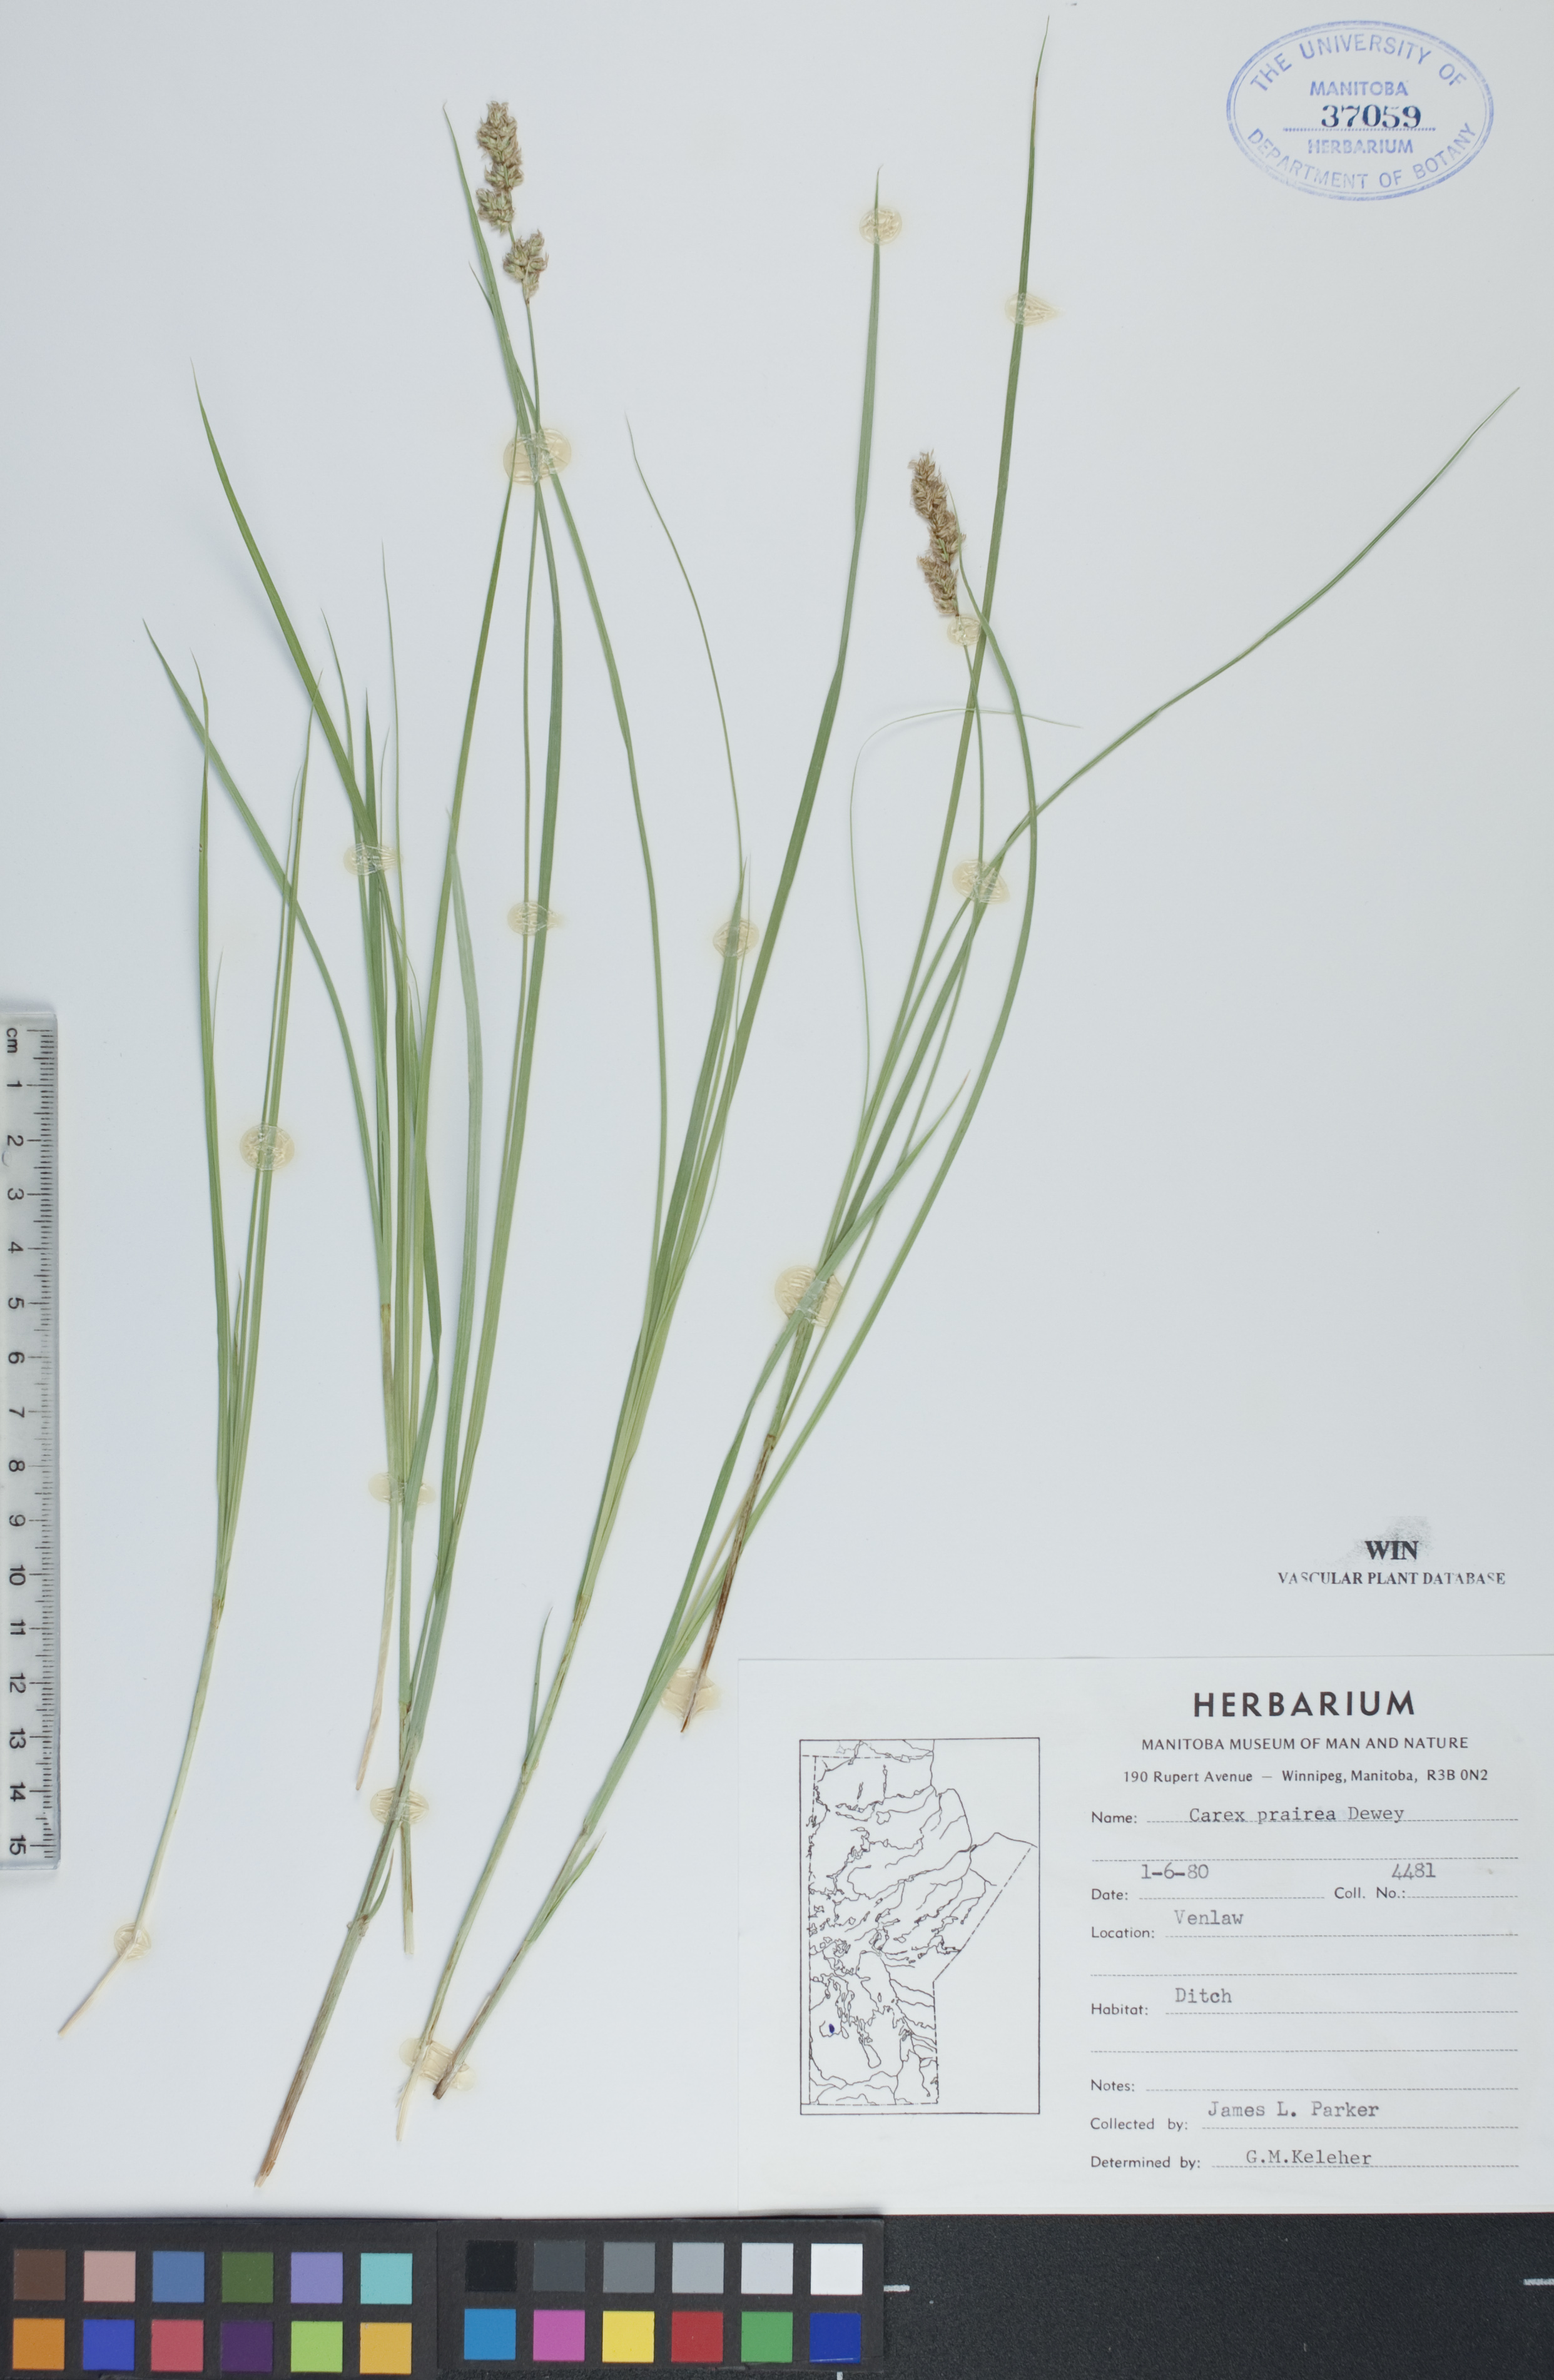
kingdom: Plantae
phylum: Tracheophyta
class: Liliopsida
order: Poales
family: Cyperaceae
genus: Carex
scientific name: Carex prairea
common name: Prairie sedge
